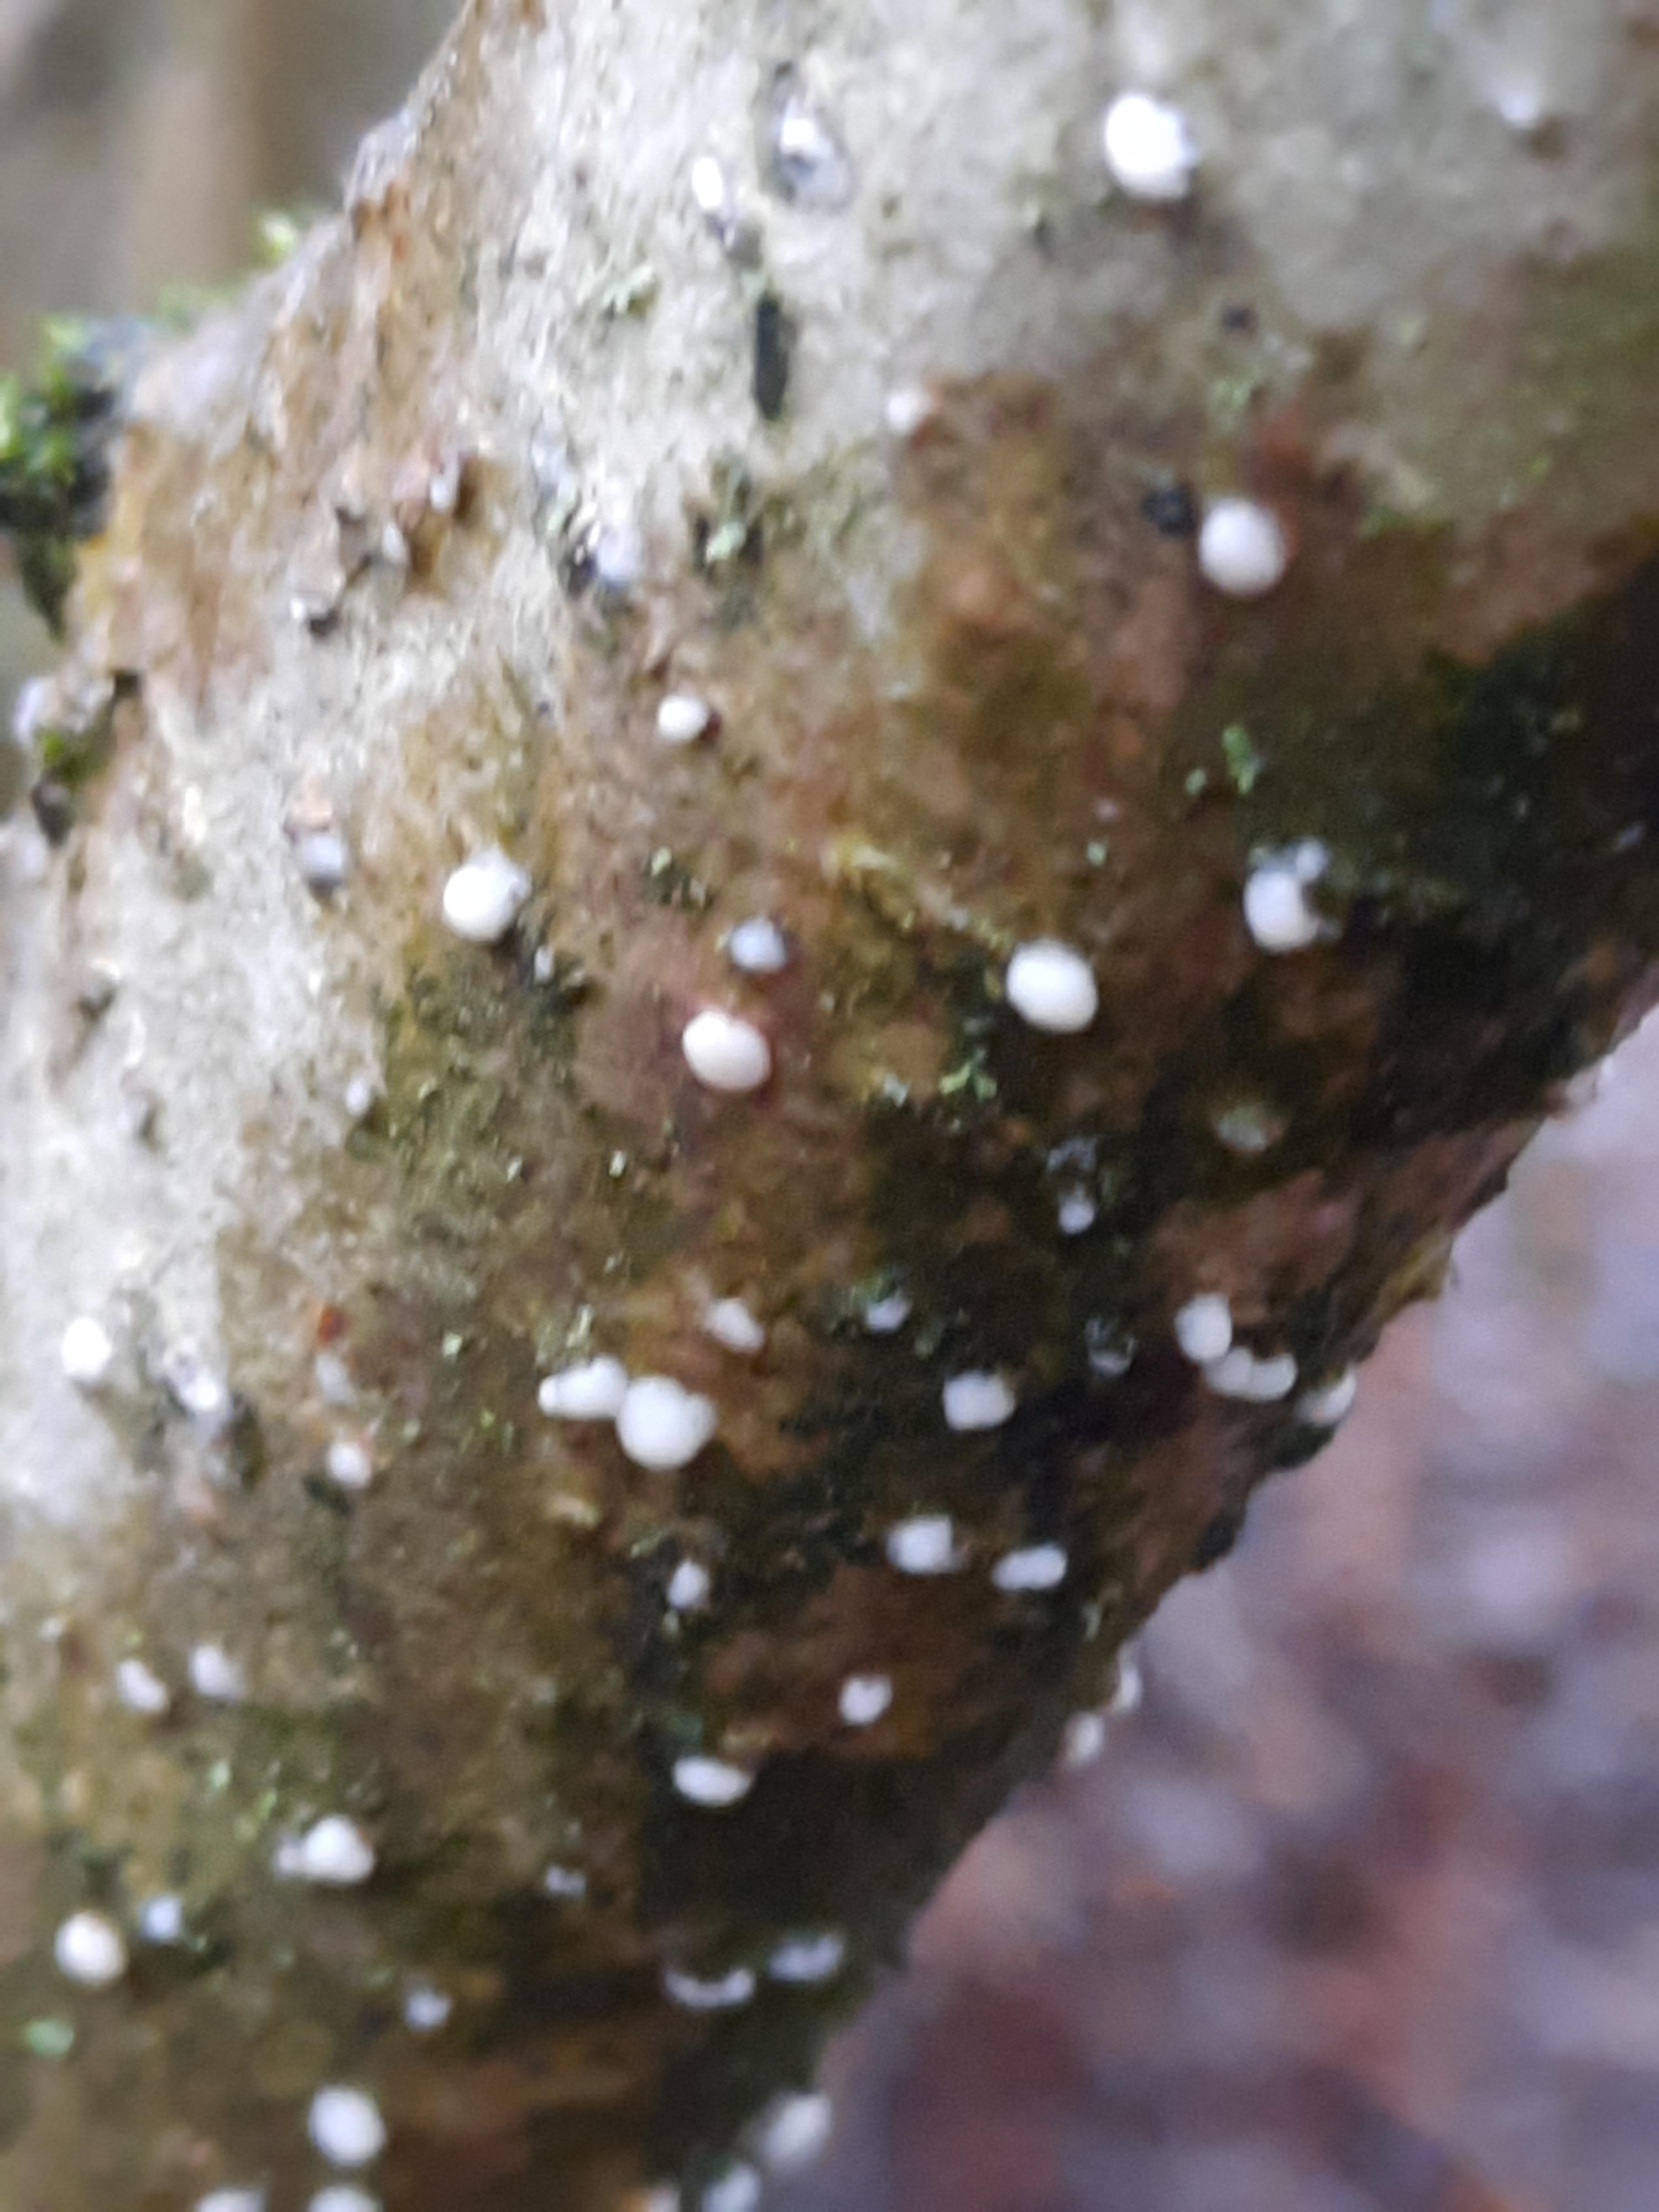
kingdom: Fungi
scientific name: Fungi
